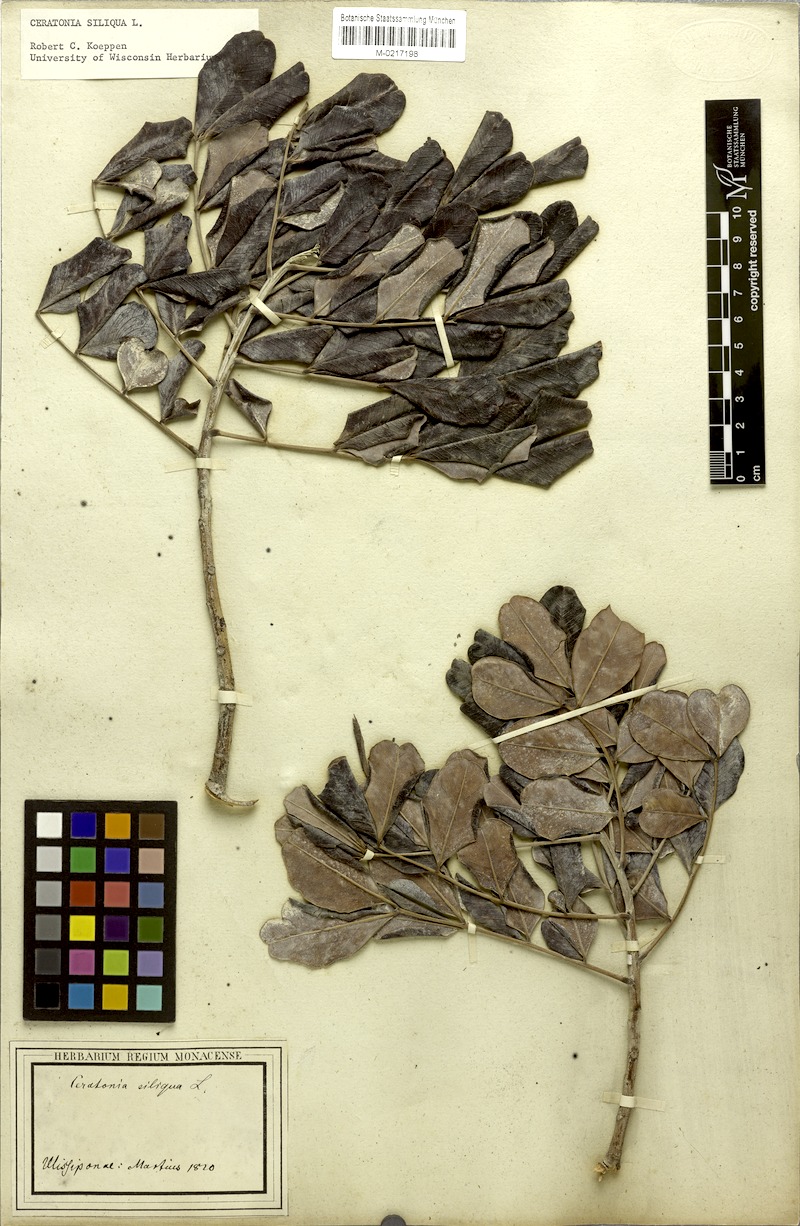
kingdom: Plantae
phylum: Tracheophyta
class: Magnoliopsida
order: Fabales
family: Fabaceae
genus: Ceratonia
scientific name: Ceratonia siliqua
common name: Carob
